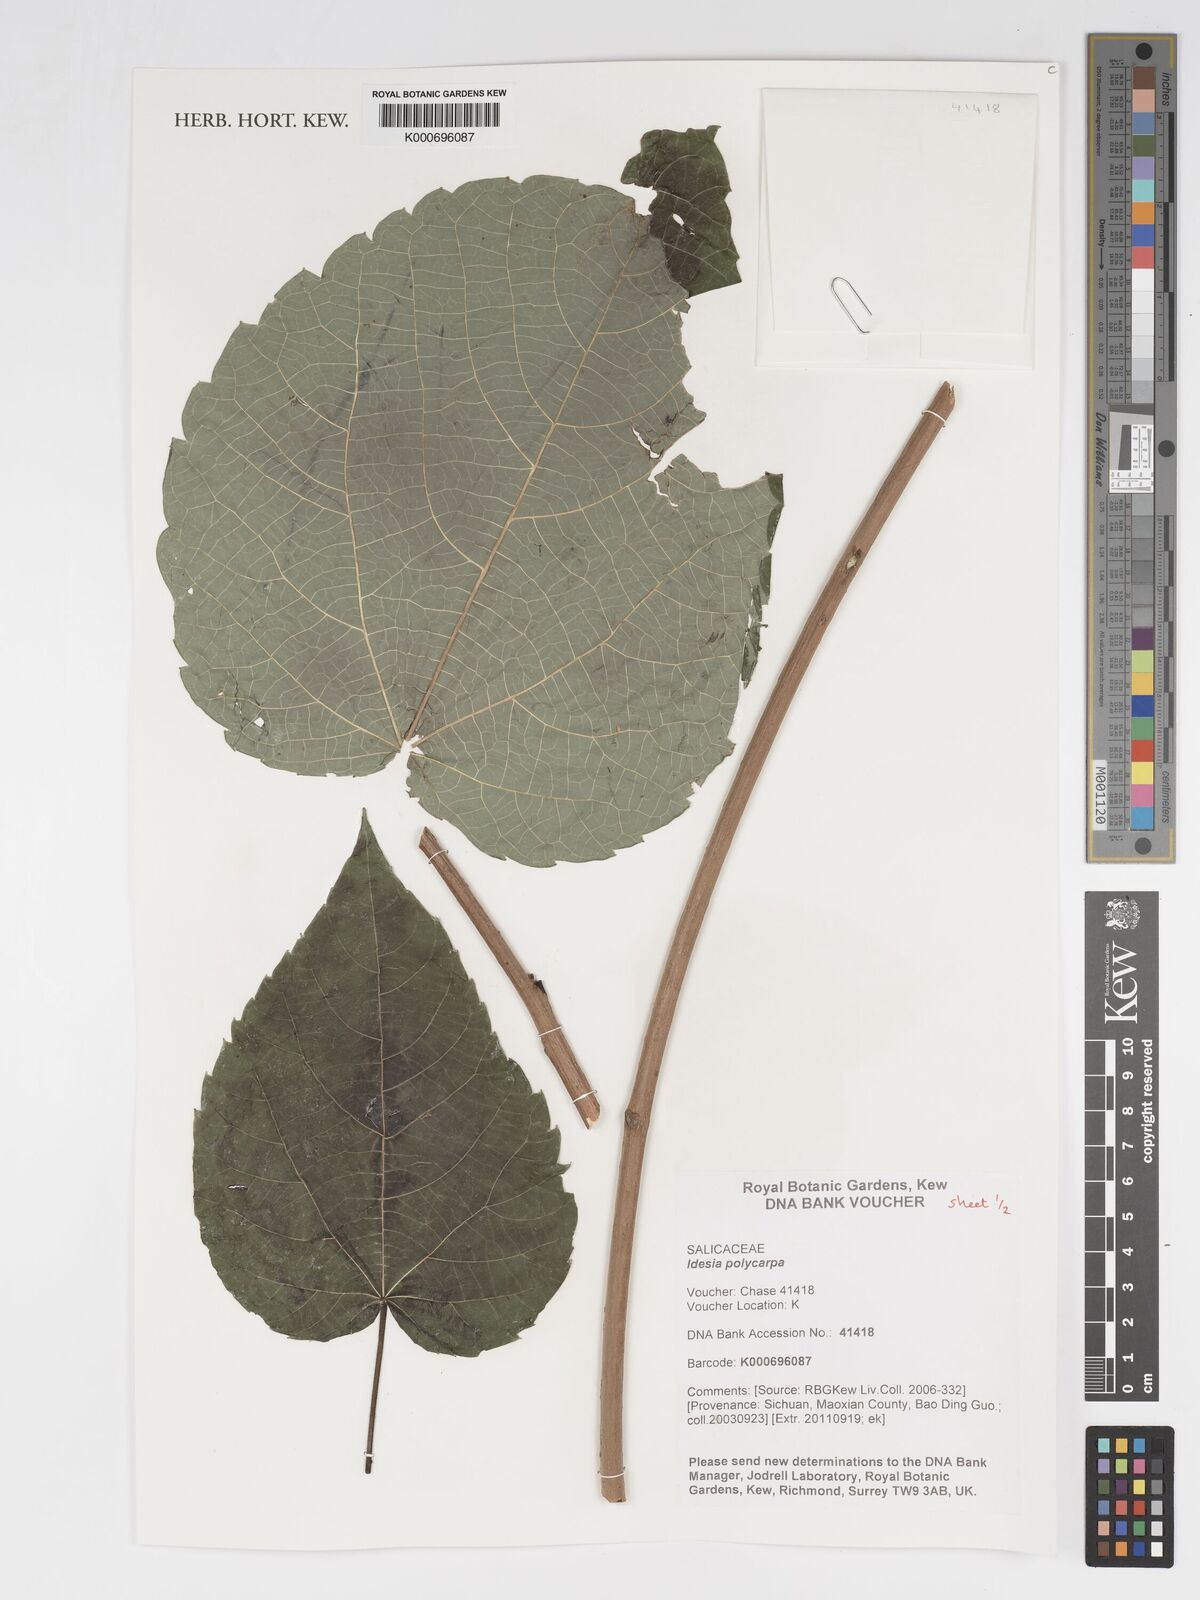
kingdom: Plantae
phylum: Tracheophyta
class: Magnoliopsida
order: Malpighiales
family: Salicaceae
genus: Idesia
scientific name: Idesia polycarpa
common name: Idesia tree
